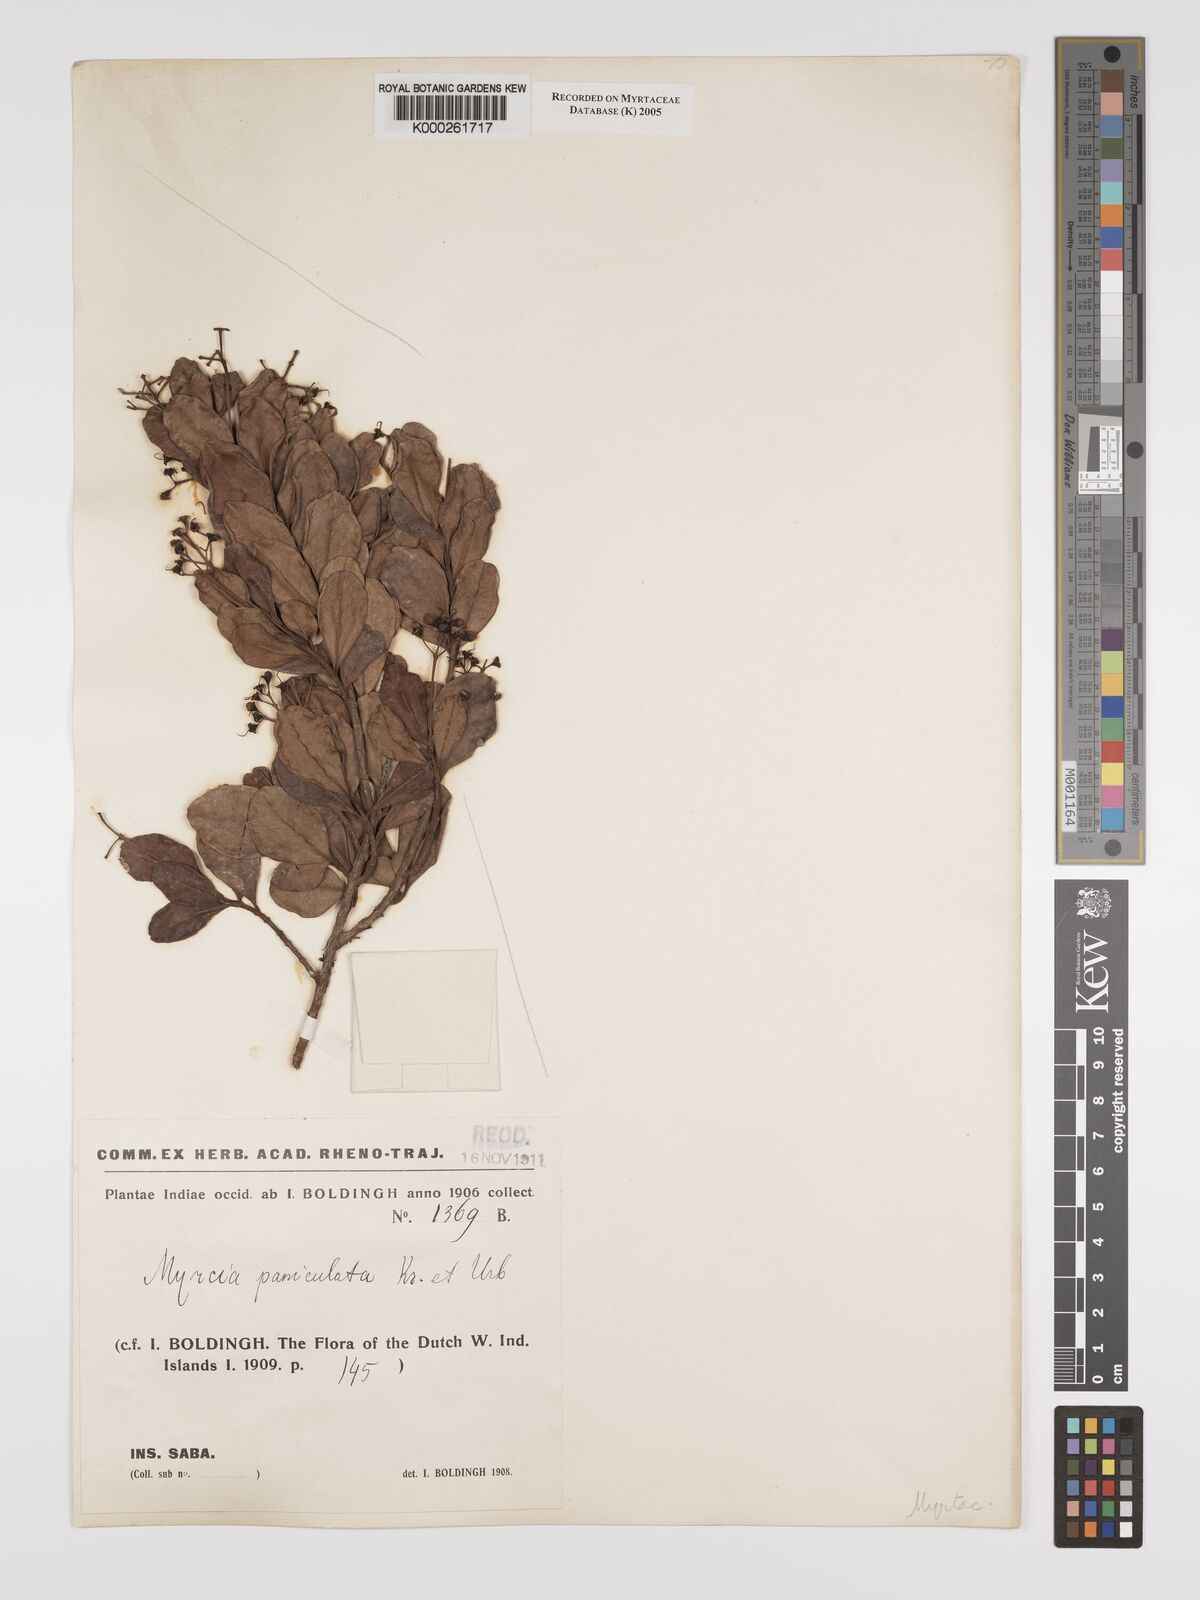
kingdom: Plantae
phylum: Tracheophyta
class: Magnoliopsida
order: Myrtales
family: Myrtaceae
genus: Myrcia
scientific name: Myrcia guianensis
